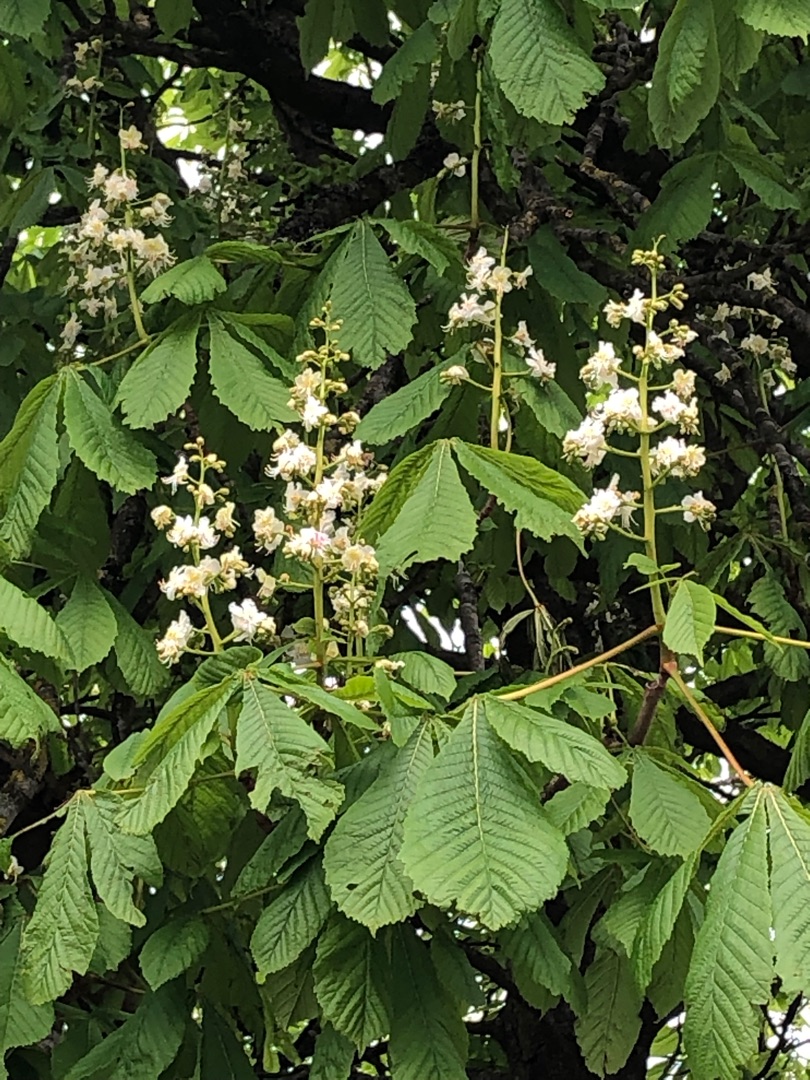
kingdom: Plantae
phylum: Tracheophyta
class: Magnoliopsida
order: Lamiales
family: Oleaceae
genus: Syringa
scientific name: Syringa vulgaris
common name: Syren
